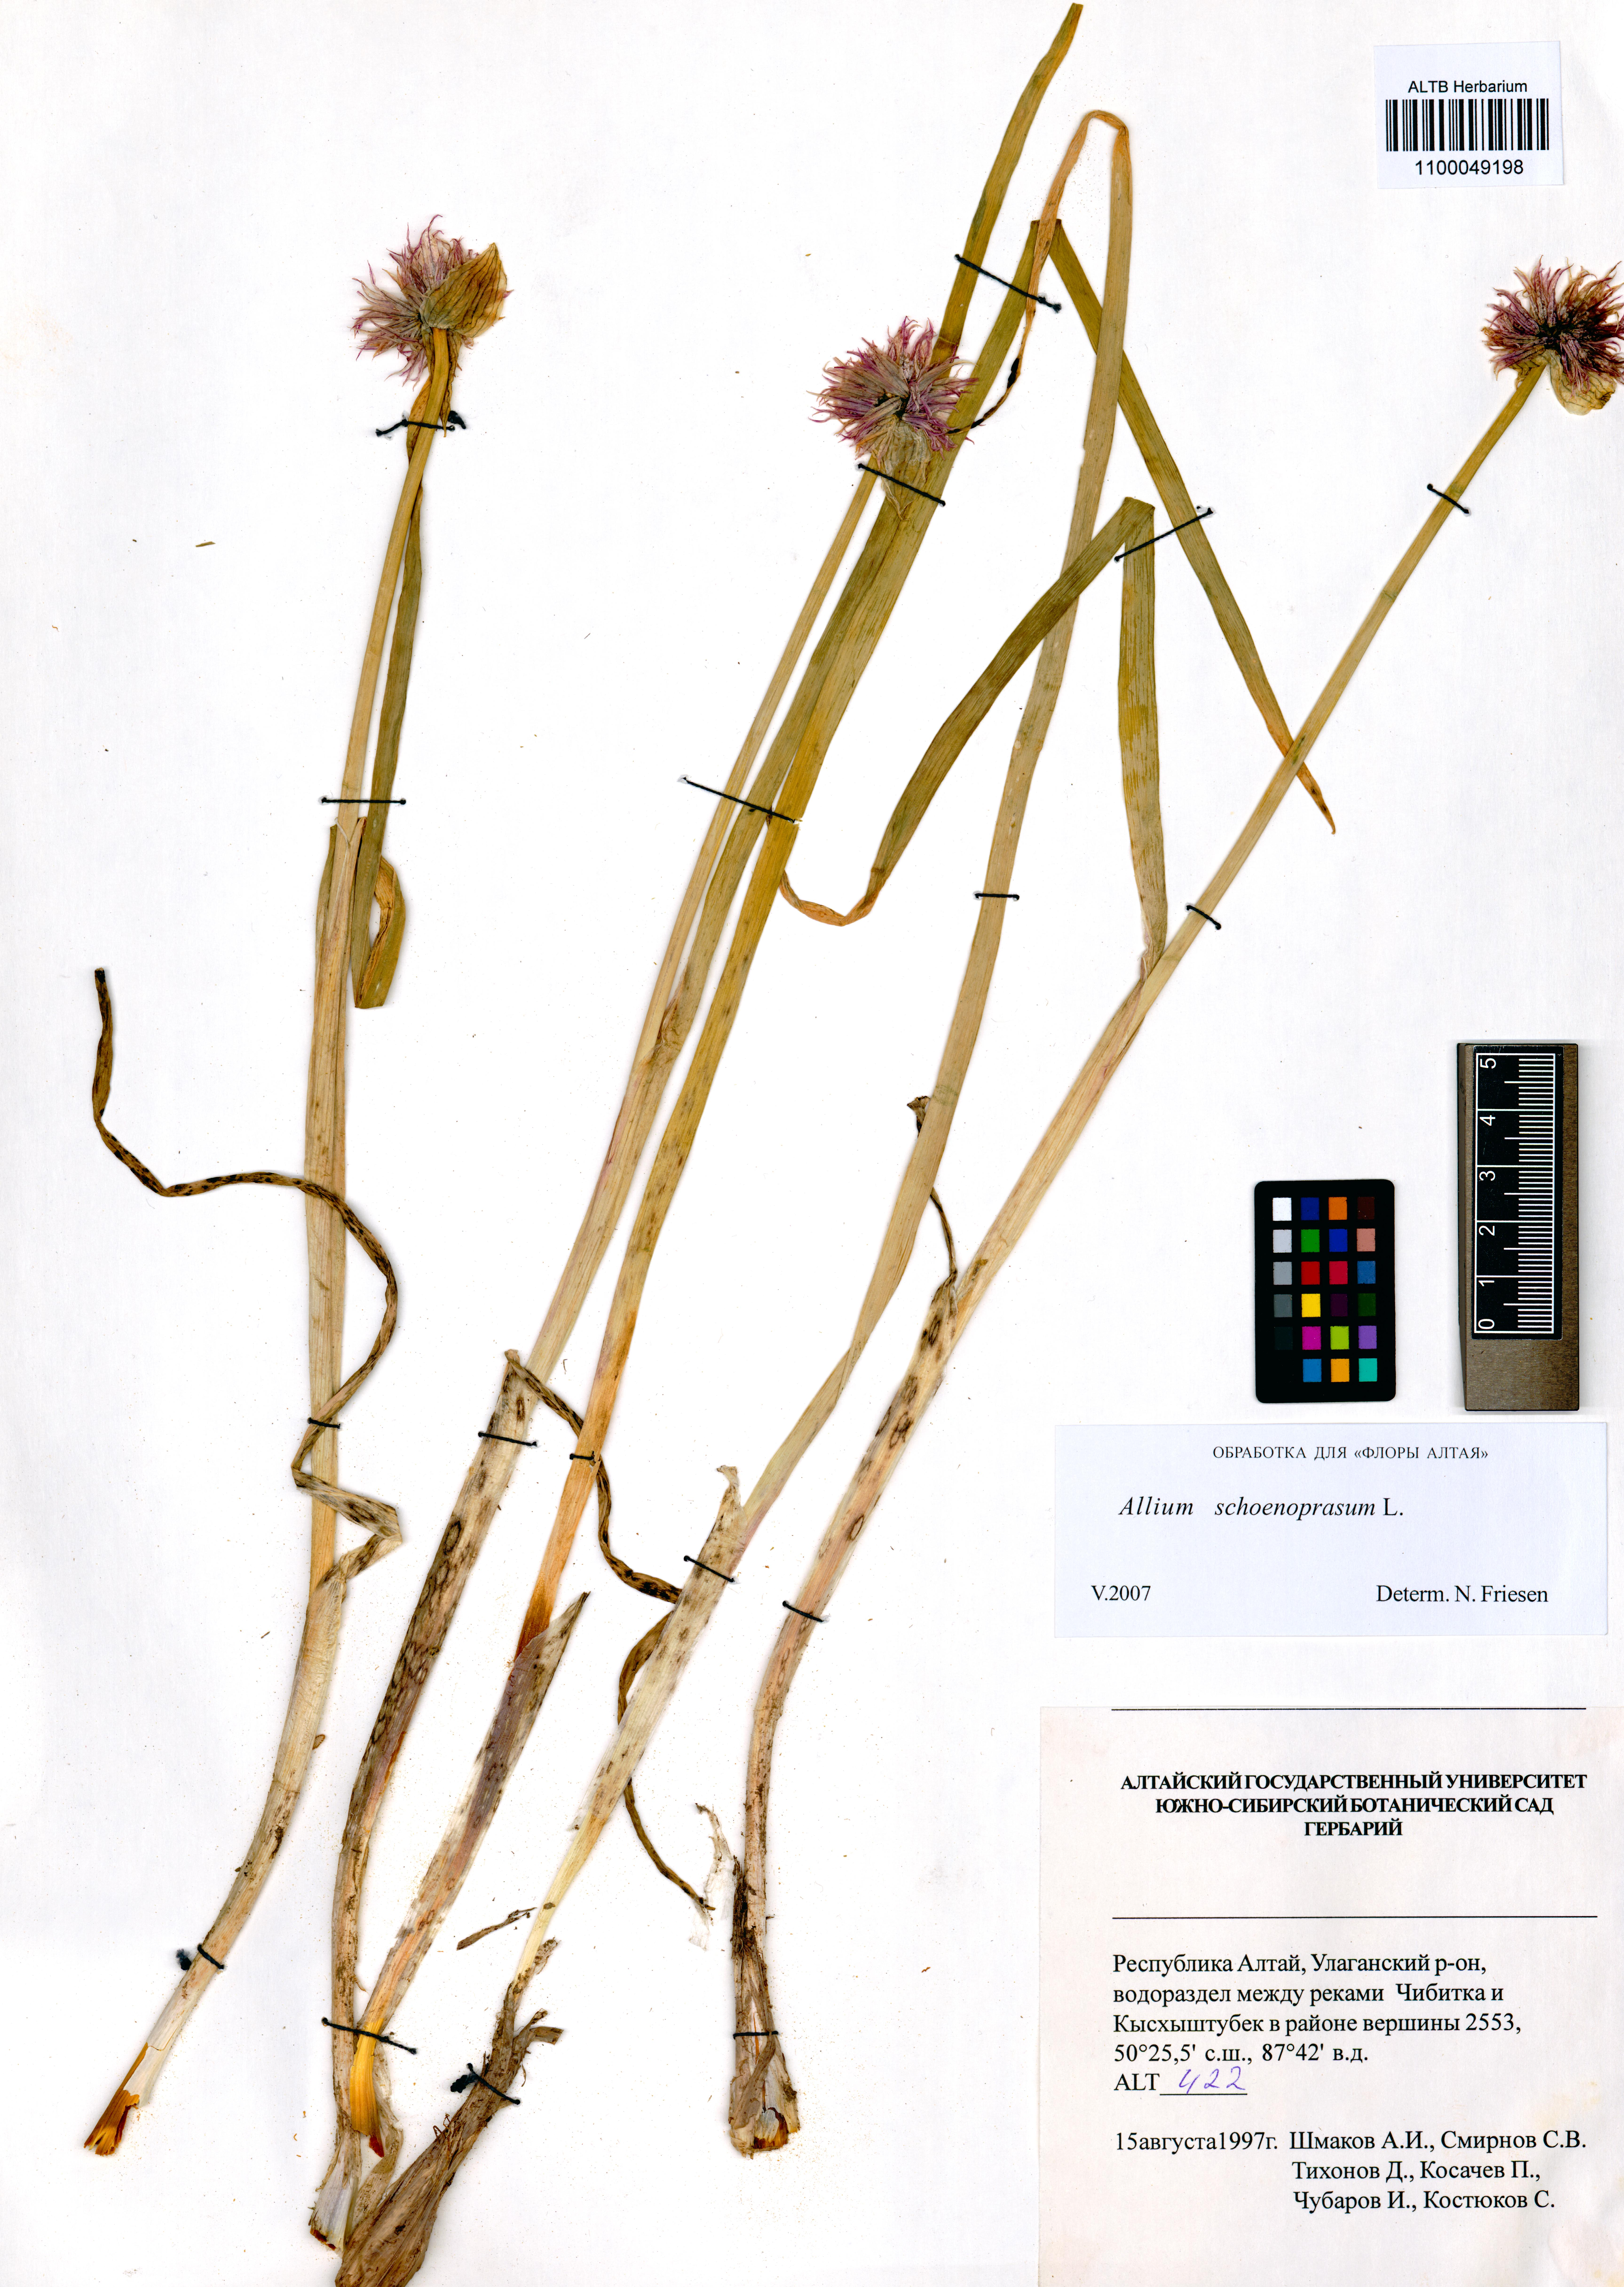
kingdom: Plantae
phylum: Tracheophyta
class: Liliopsida
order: Asparagales
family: Amaryllidaceae
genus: Allium
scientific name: Allium schoenoprasum
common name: Chives
